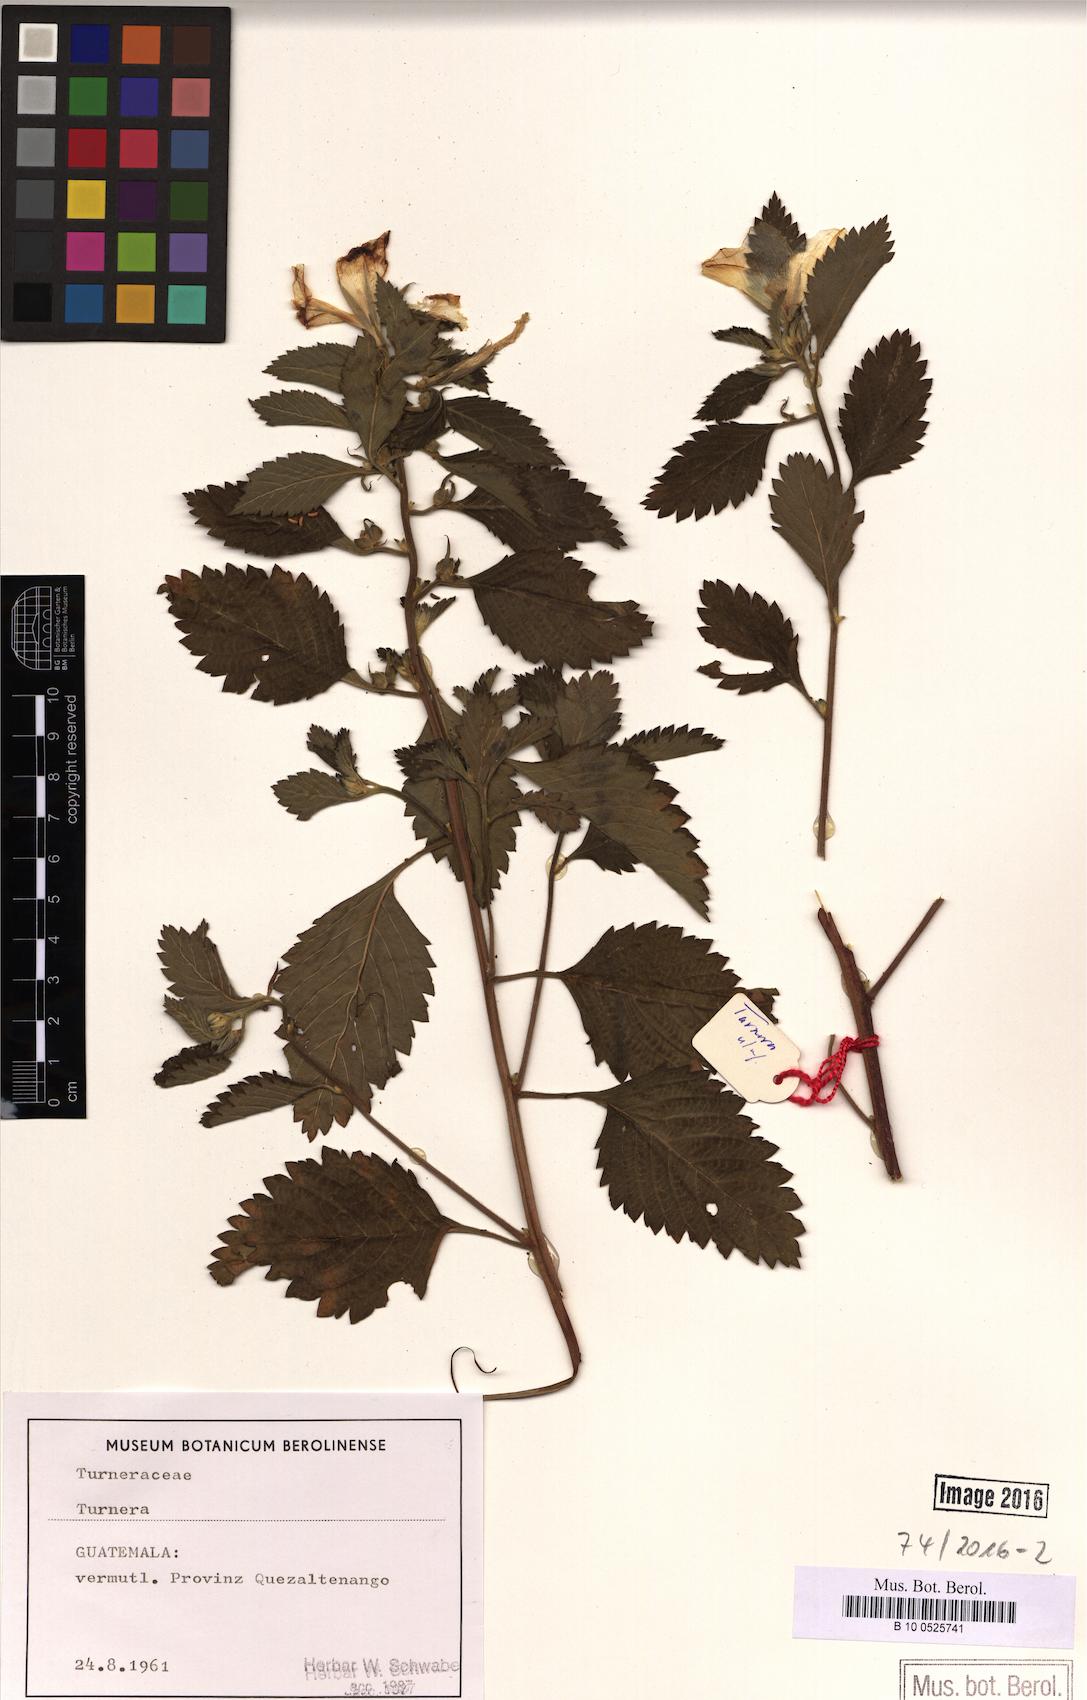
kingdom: Plantae
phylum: Tracheophyta
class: Magnoliopsida
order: Malpighiales
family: Turneraceae
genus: Turnera
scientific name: Turnera
